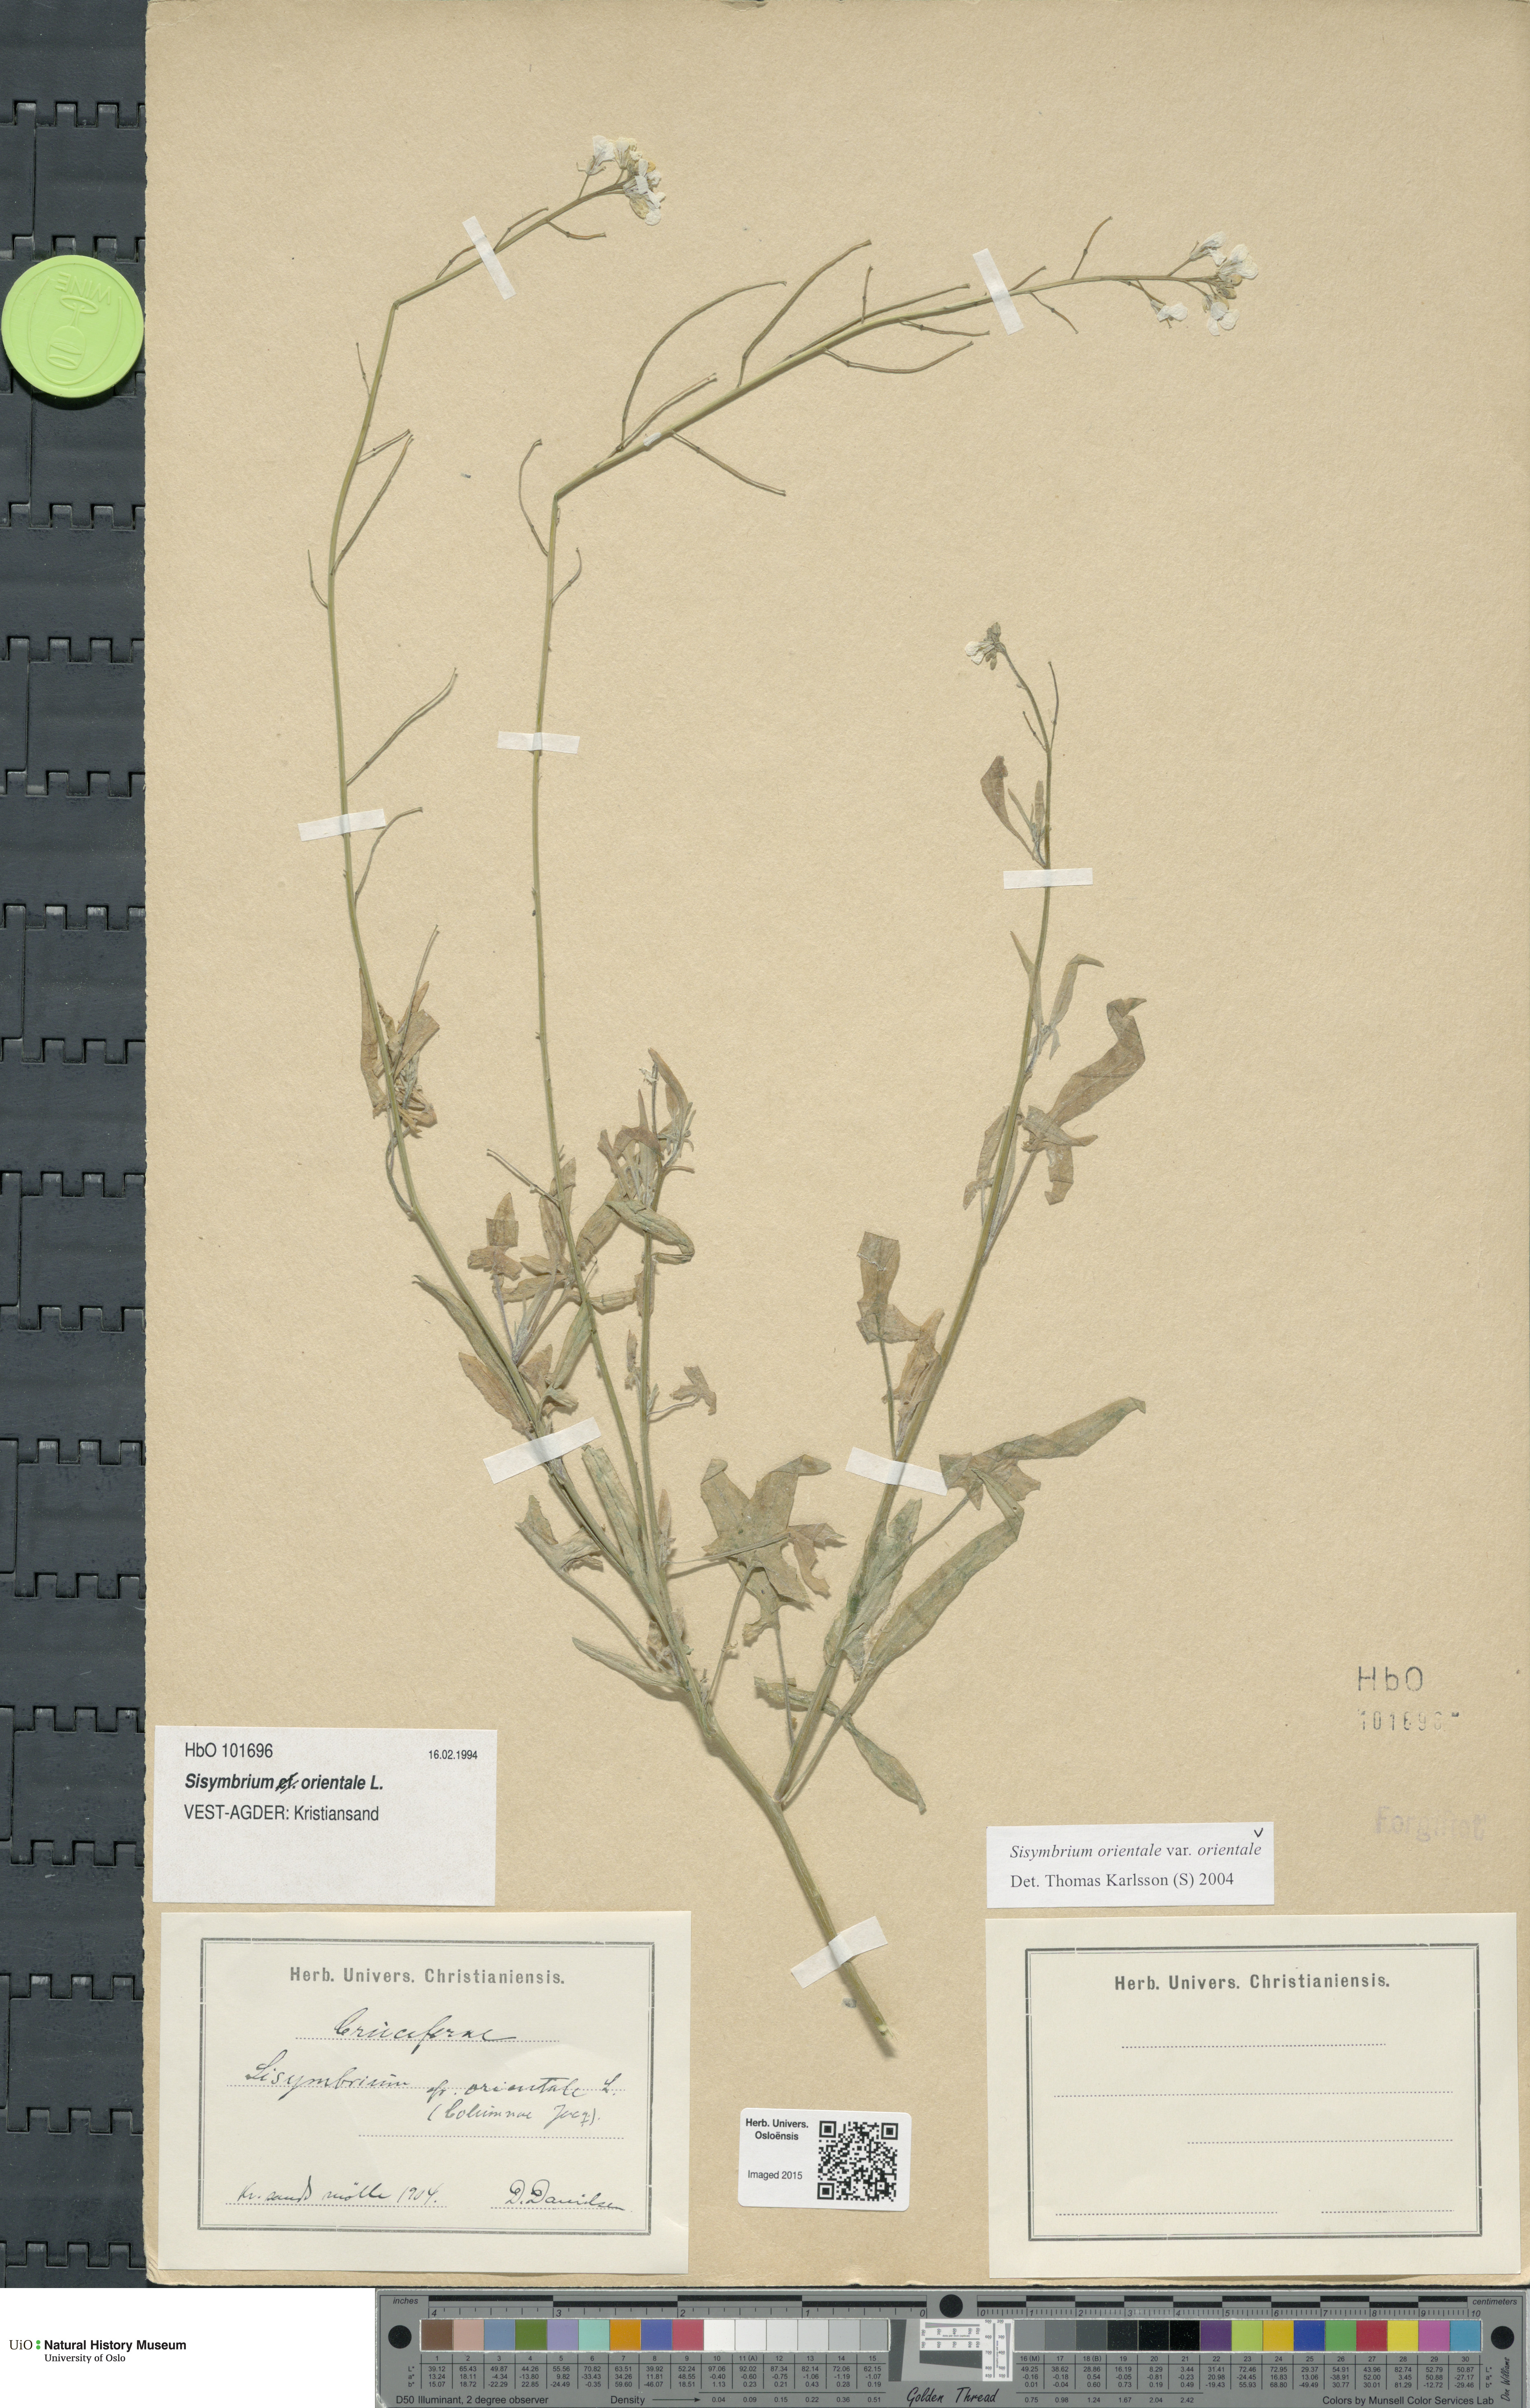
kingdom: Plantae
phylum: Tracheophyta
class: Magnoliopsida
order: Brassicales
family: Brassicaceae
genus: Sisymbrium
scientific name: Sisymbrium orientale
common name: Eastern rocket
